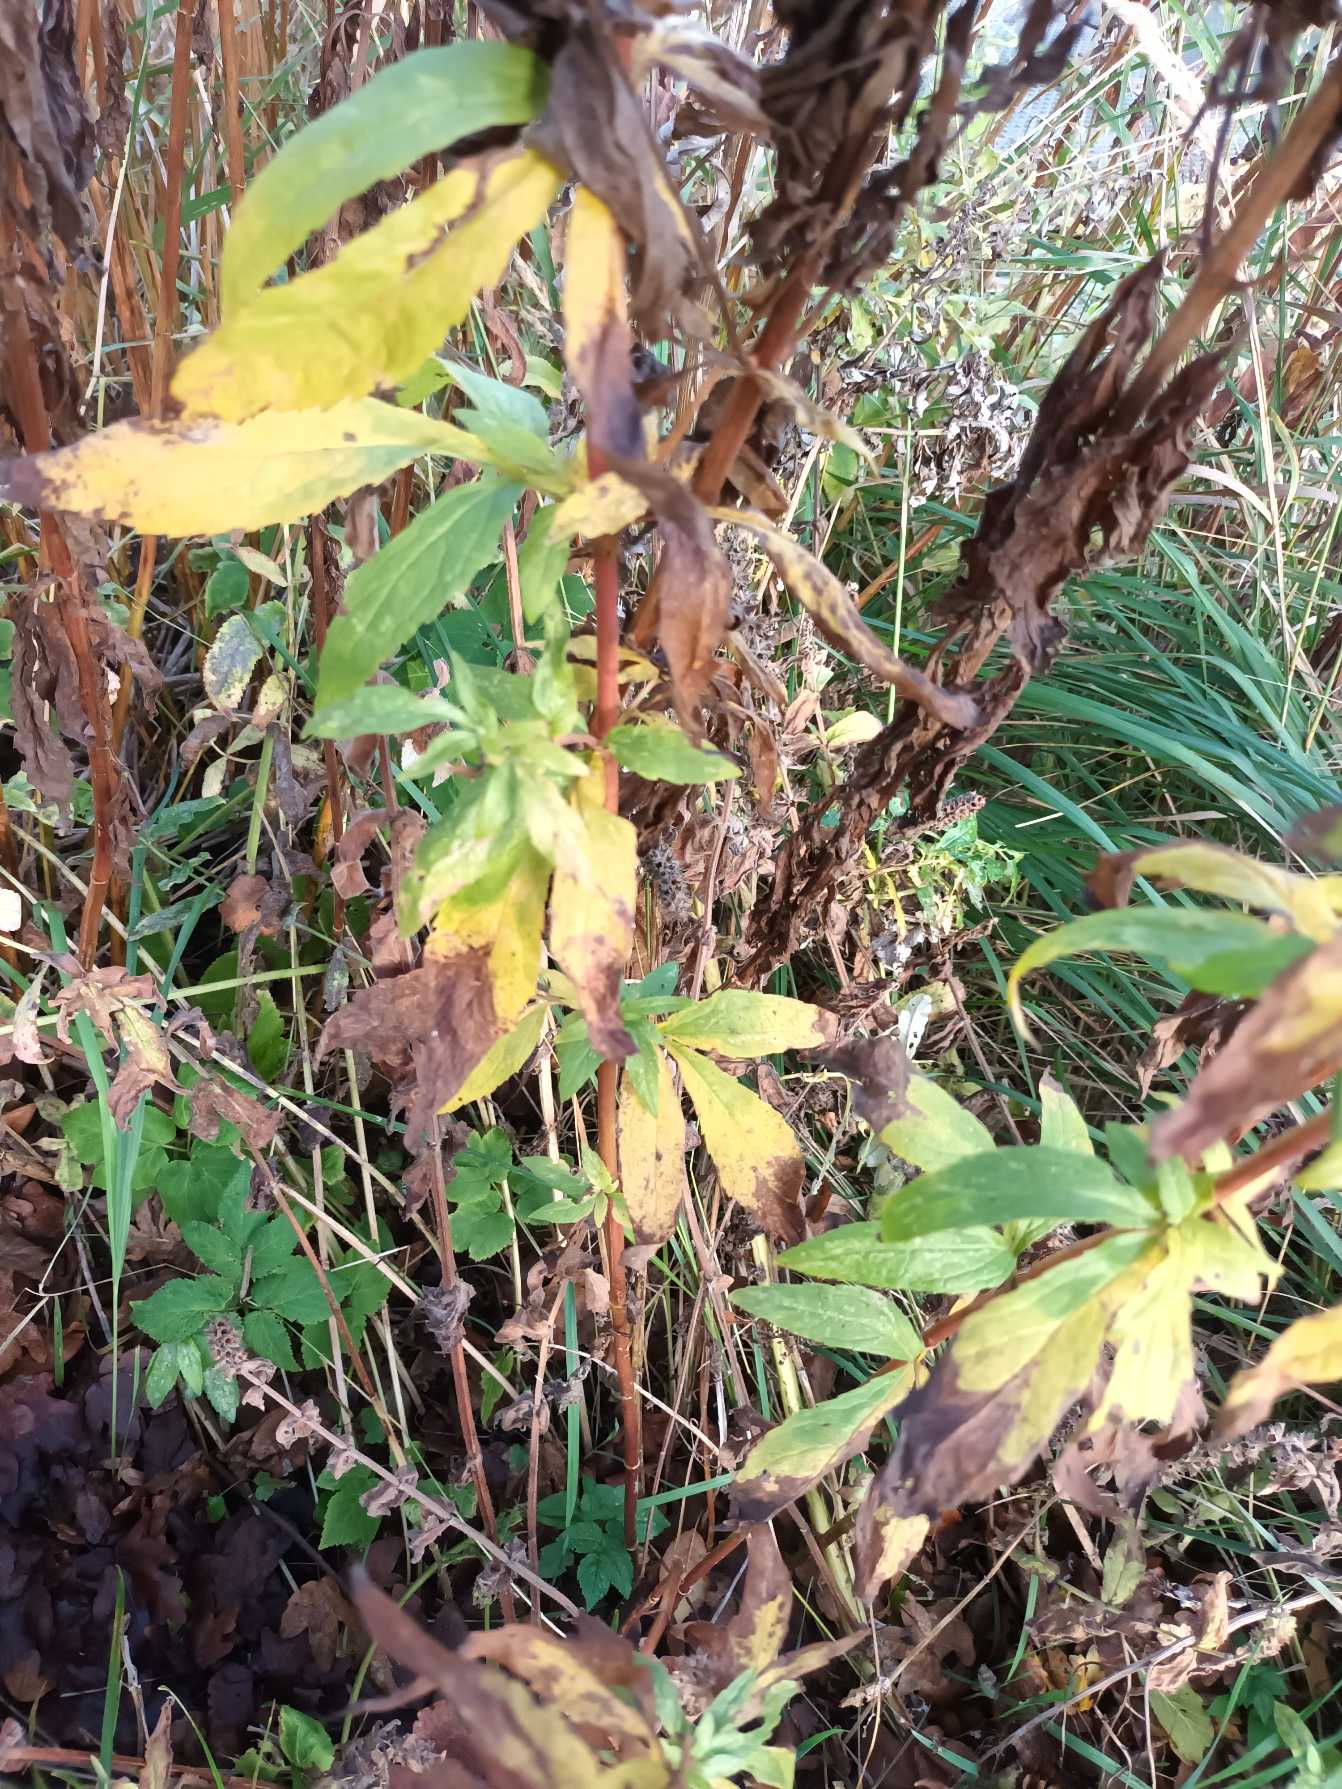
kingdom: Plantae
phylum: Tracheophyta
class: Magnoliopsida
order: Asterales
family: Asteraceae
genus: Eupatorium
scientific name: Eupatorium cannabinum
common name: Hjortetrøst
